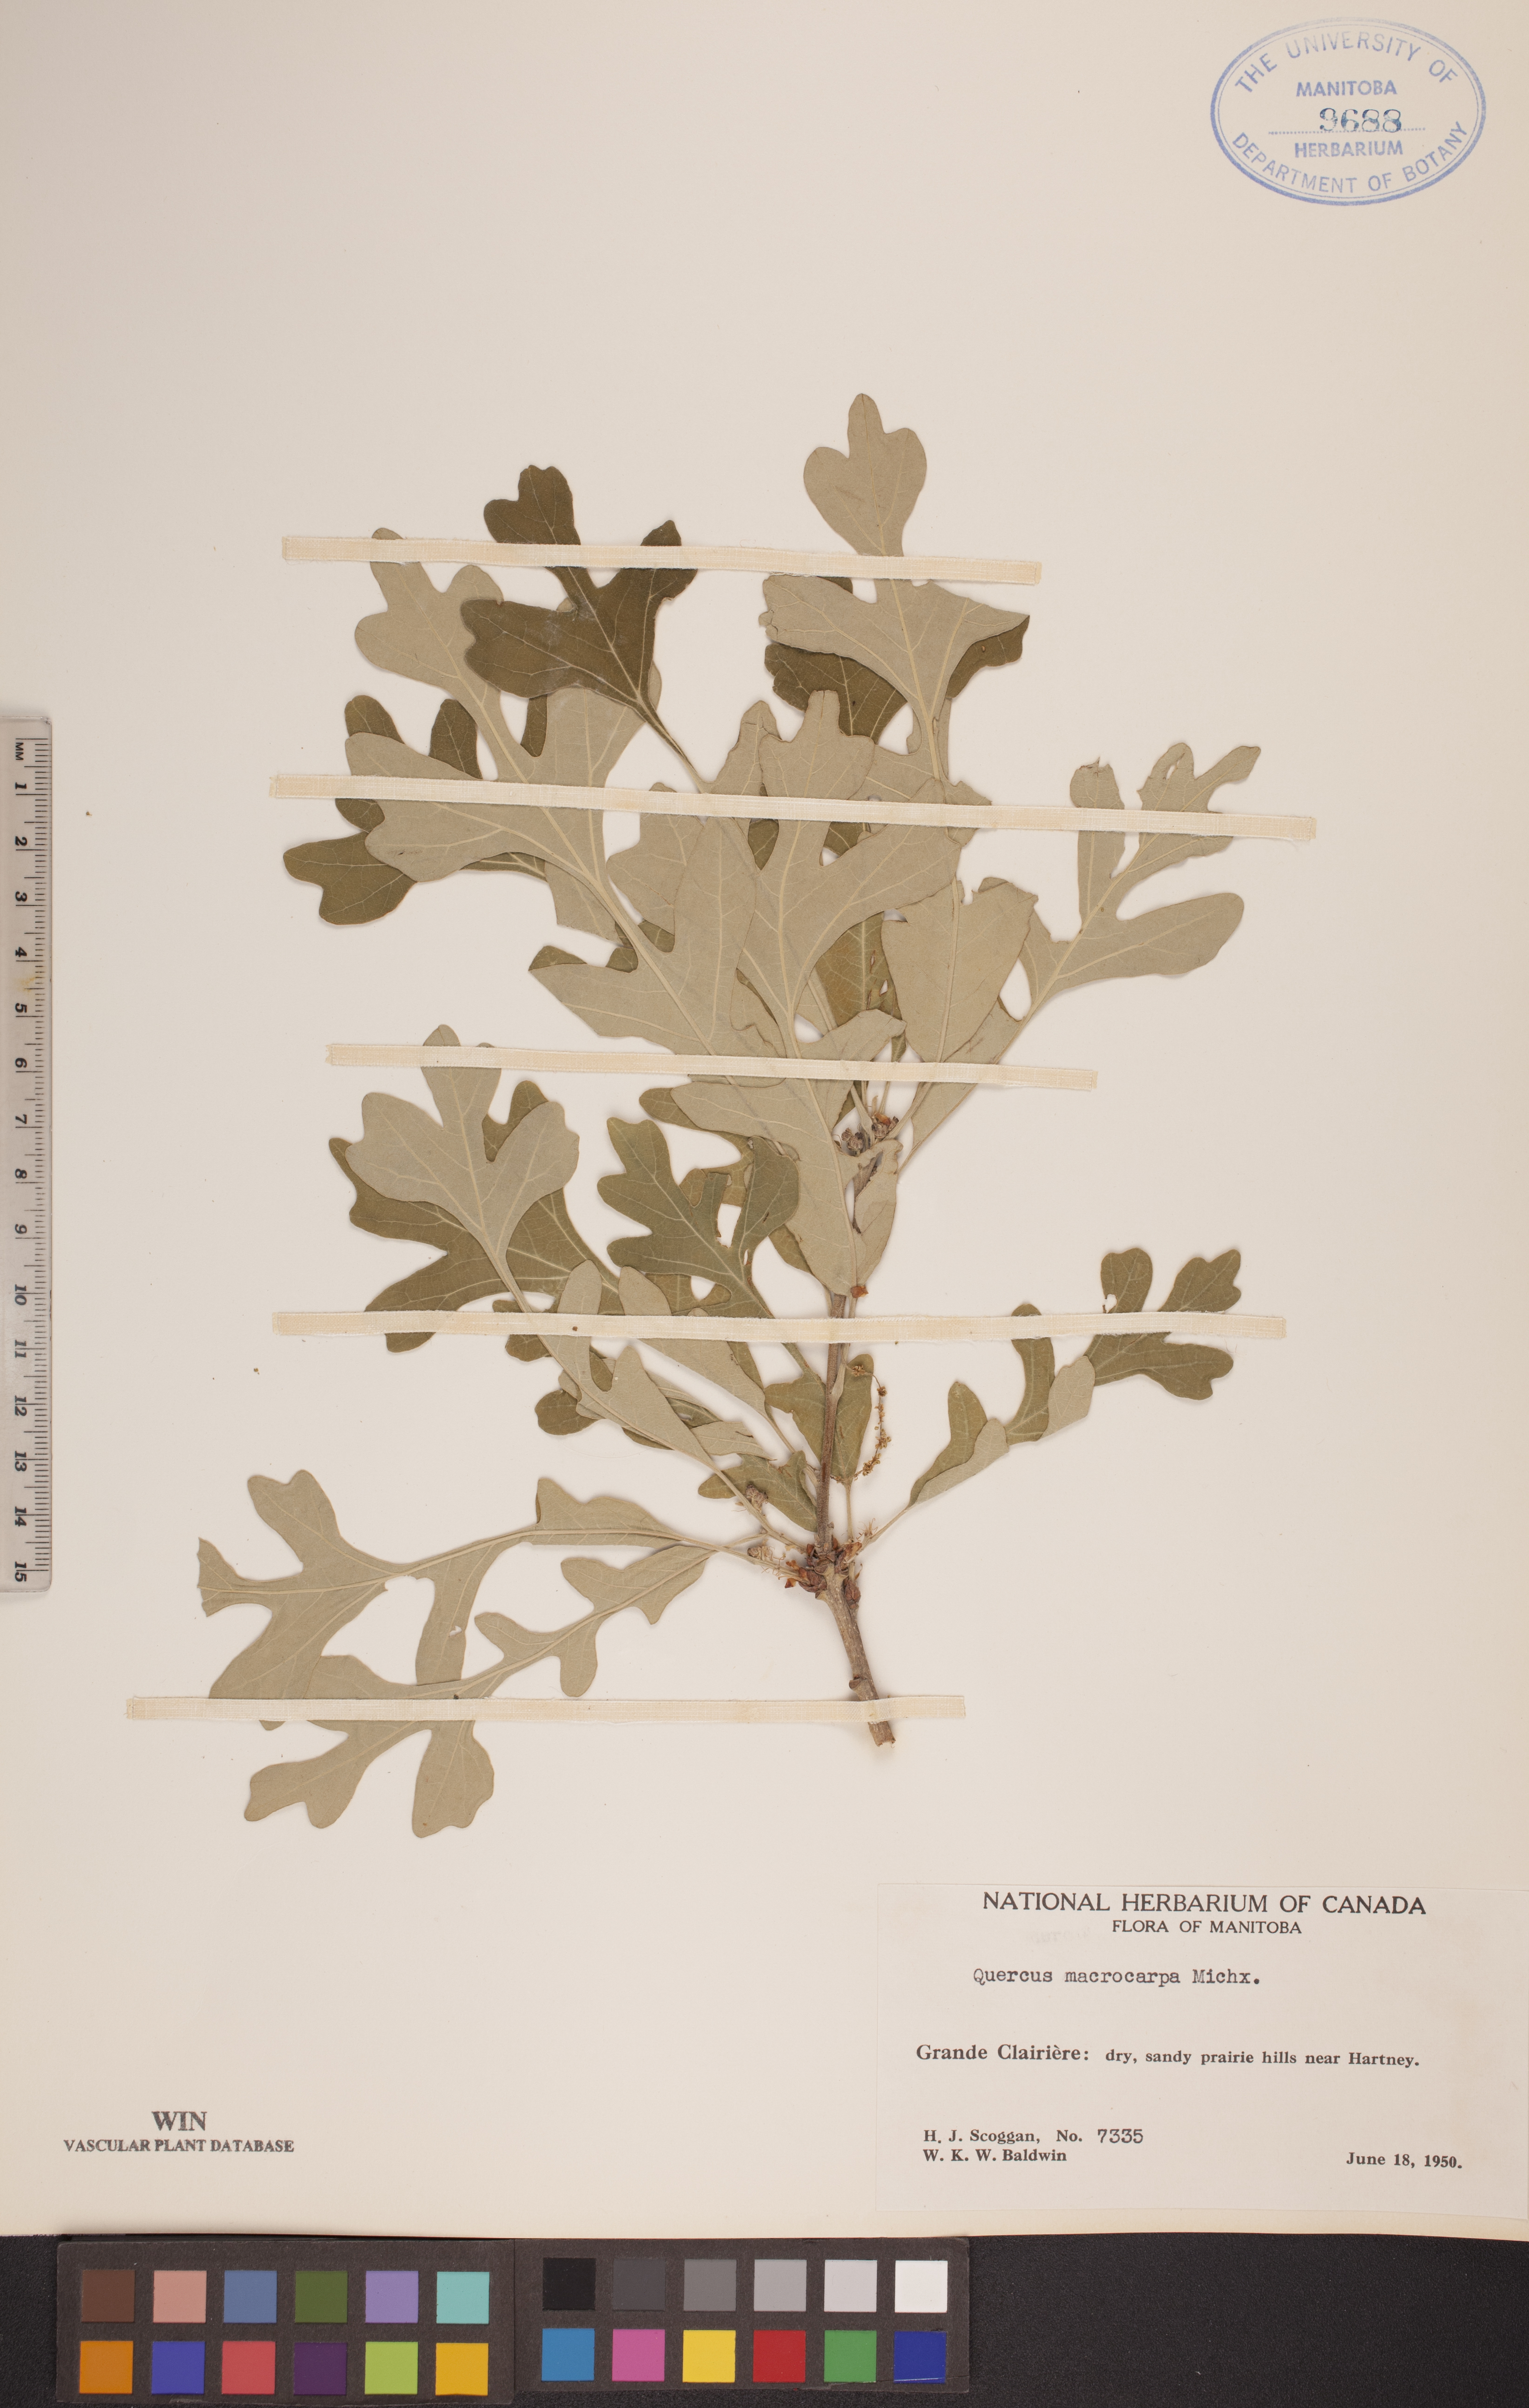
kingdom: Plantae
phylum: Tracheophyta
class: Magnoliopsida
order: Fagales
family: Fagaceae
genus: Quercus
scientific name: Quercus macrocarpa
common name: Bur oak
